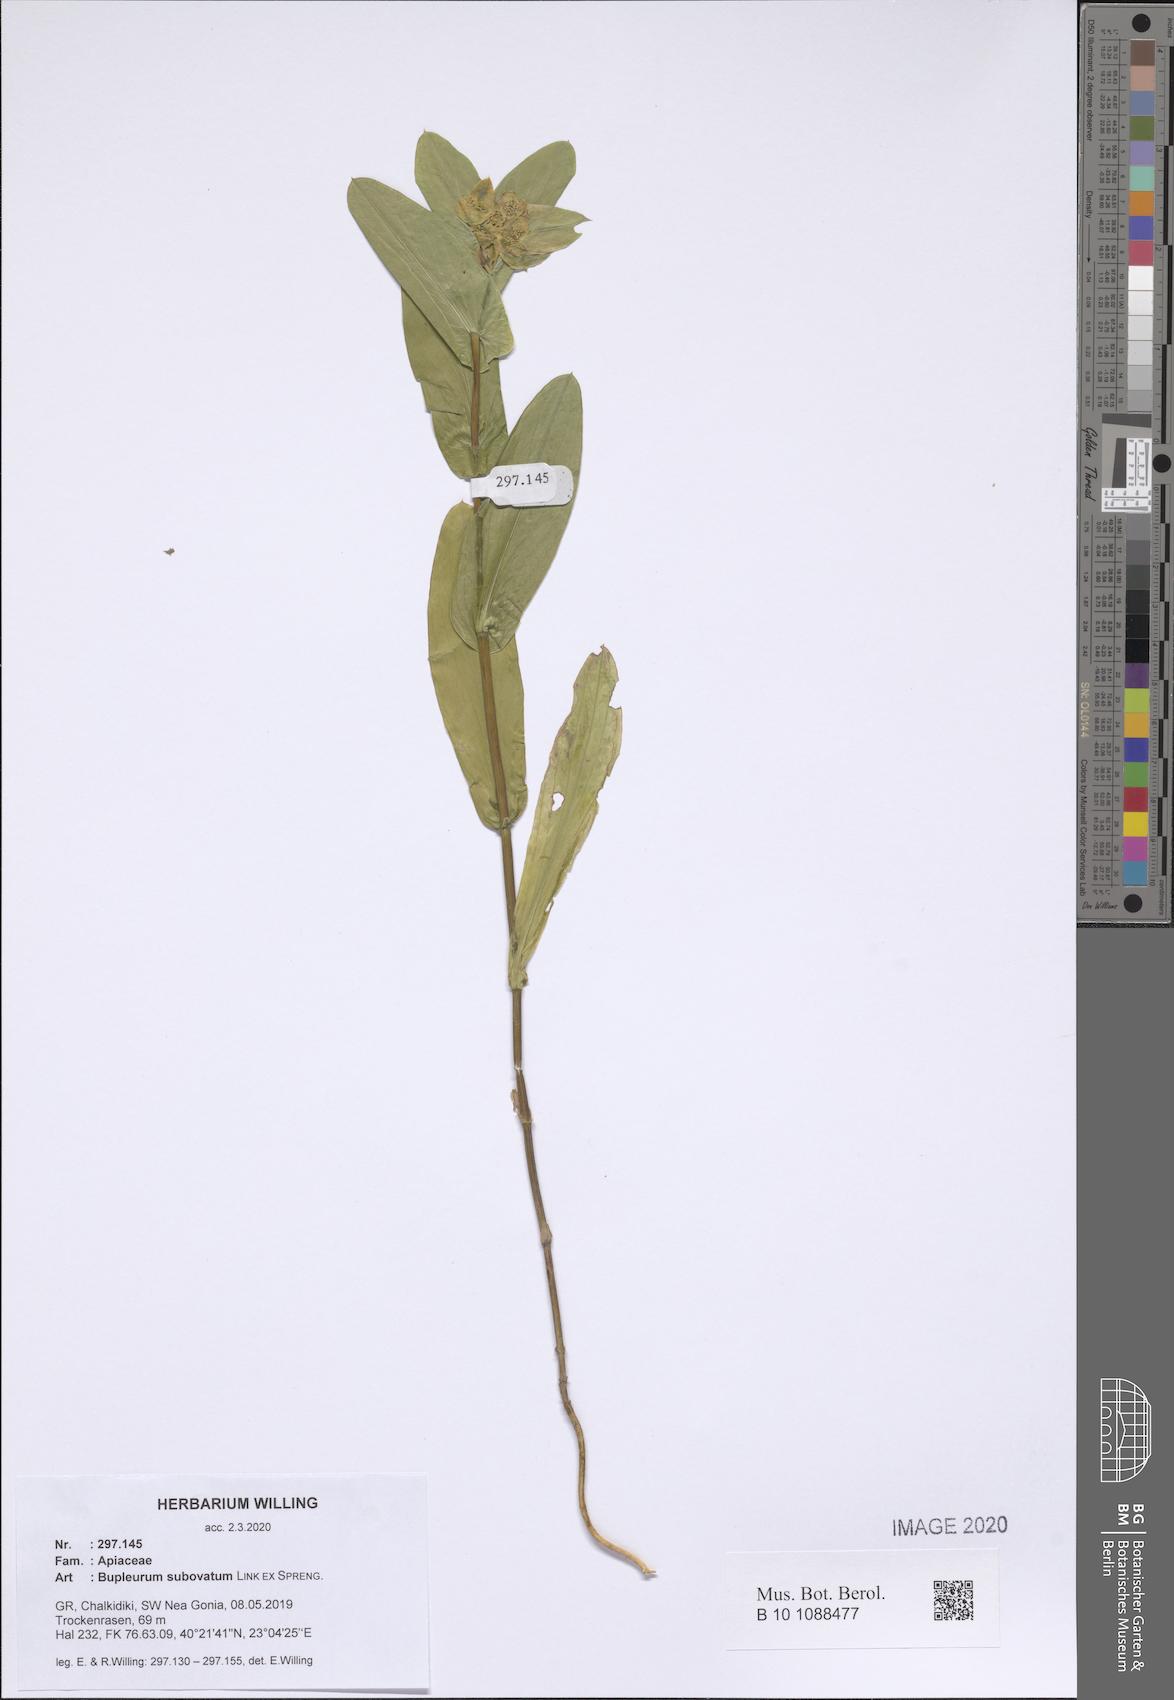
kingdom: Plantae
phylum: Tracheophyta
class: Magnoliopsida
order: Apiales
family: Apiaceae
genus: Bupleurum
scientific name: Bupleurum subovatum
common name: False thorow-wax
